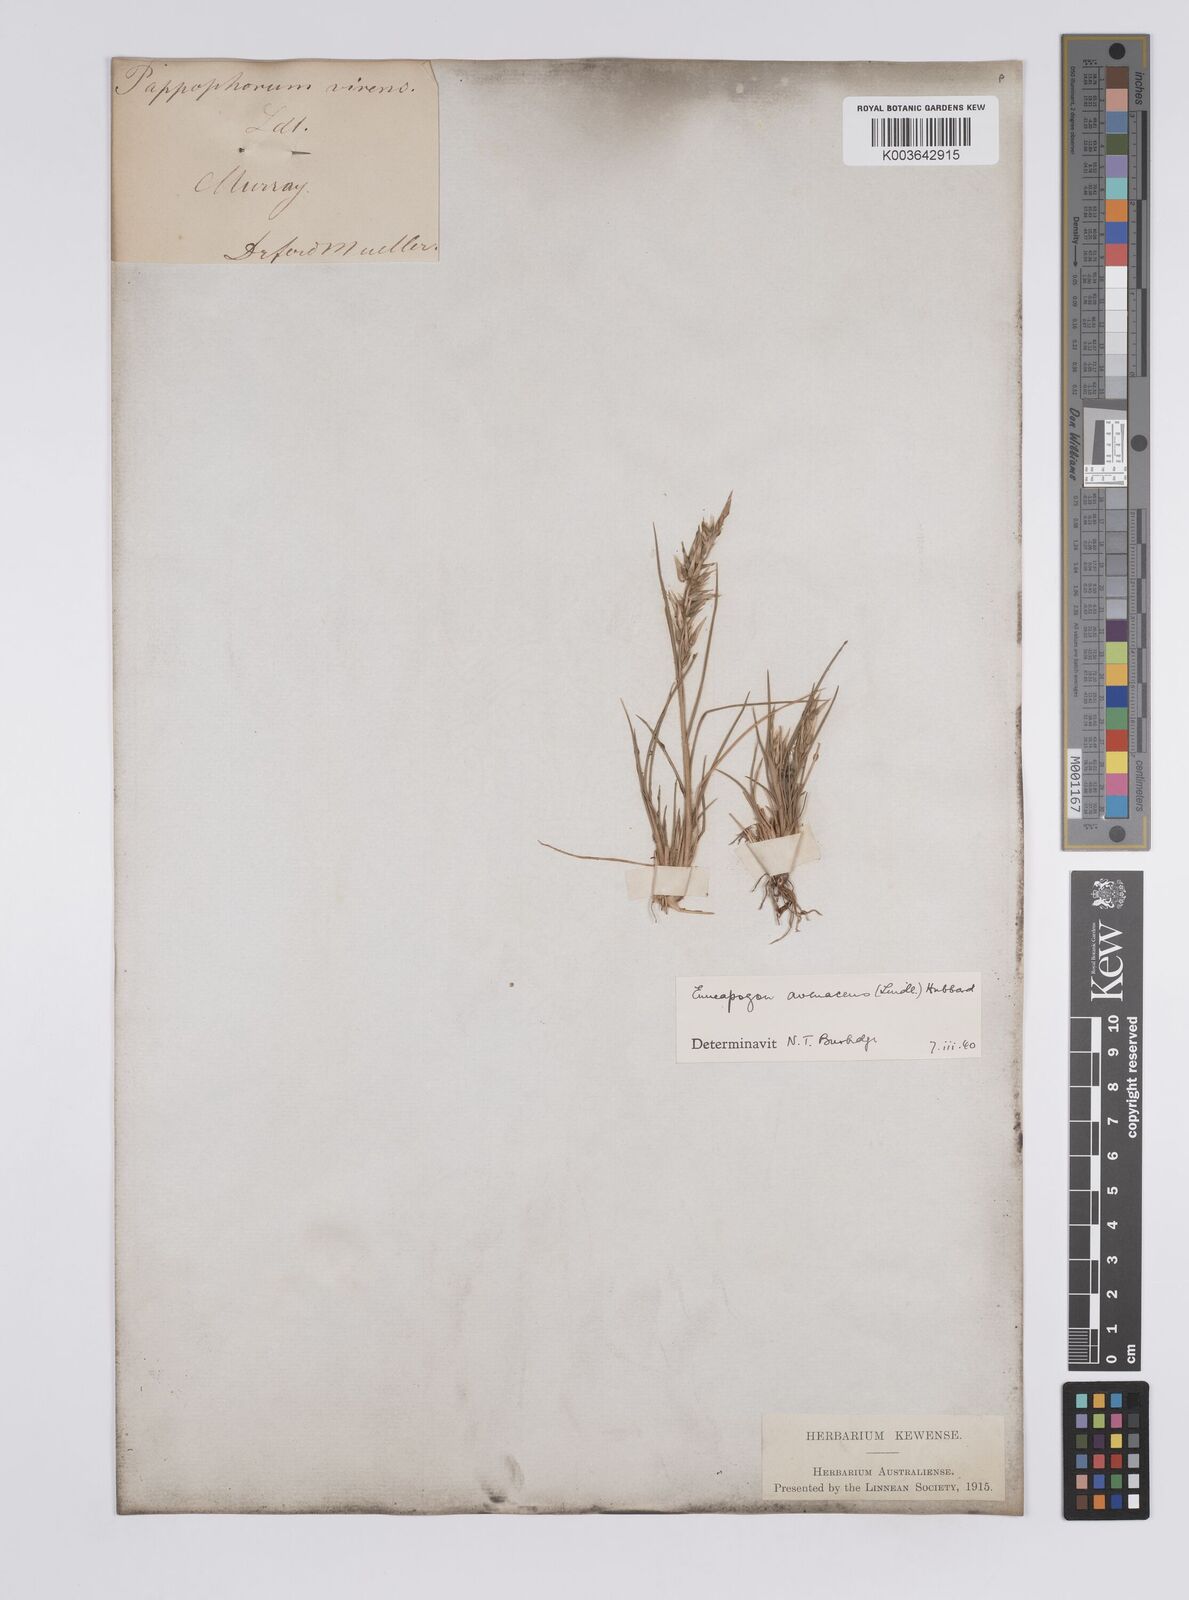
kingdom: Plantae
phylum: Tracheophyta
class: Liliopsida
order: Poales
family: Poaceae
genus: Enneapogon
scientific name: Enneapogon avenaceus
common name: Hairy oat grass
